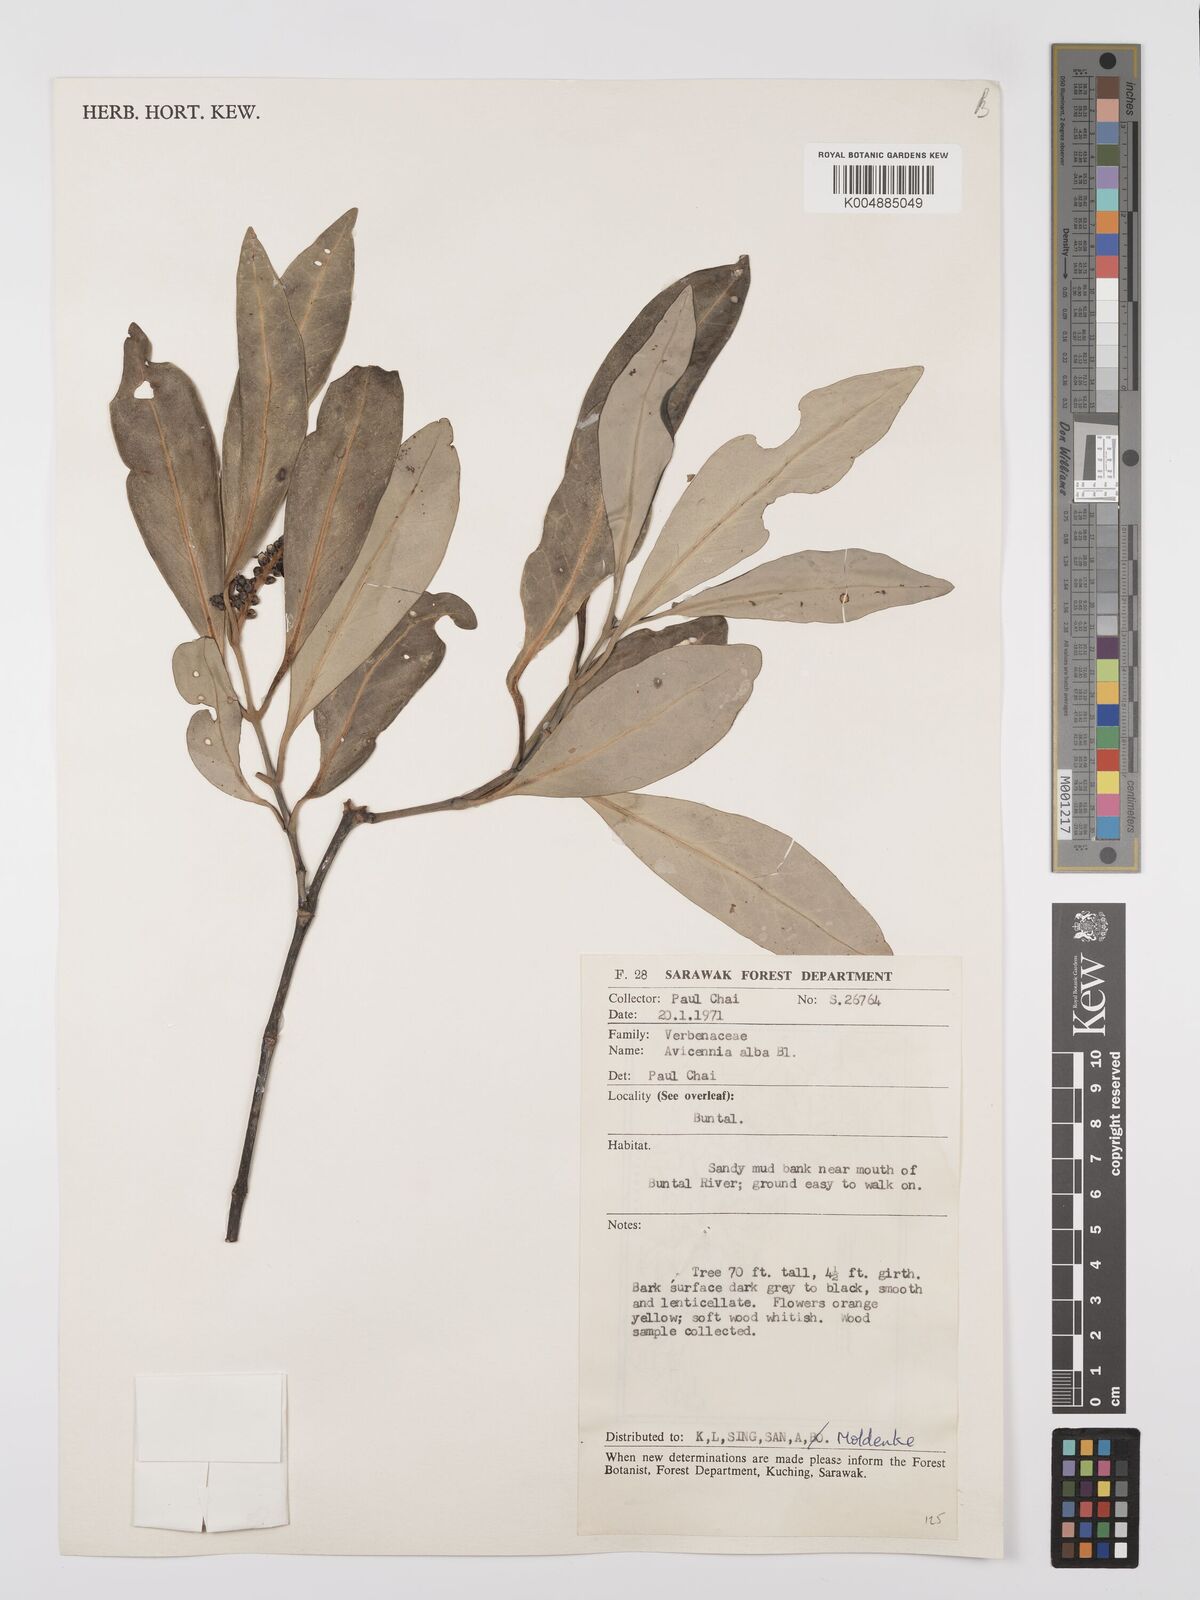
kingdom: Plantae
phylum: Tracheophyta
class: Magnoliopsida
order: Lamiales
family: Acanthaceae
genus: Avicennia
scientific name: Avicennia alba
